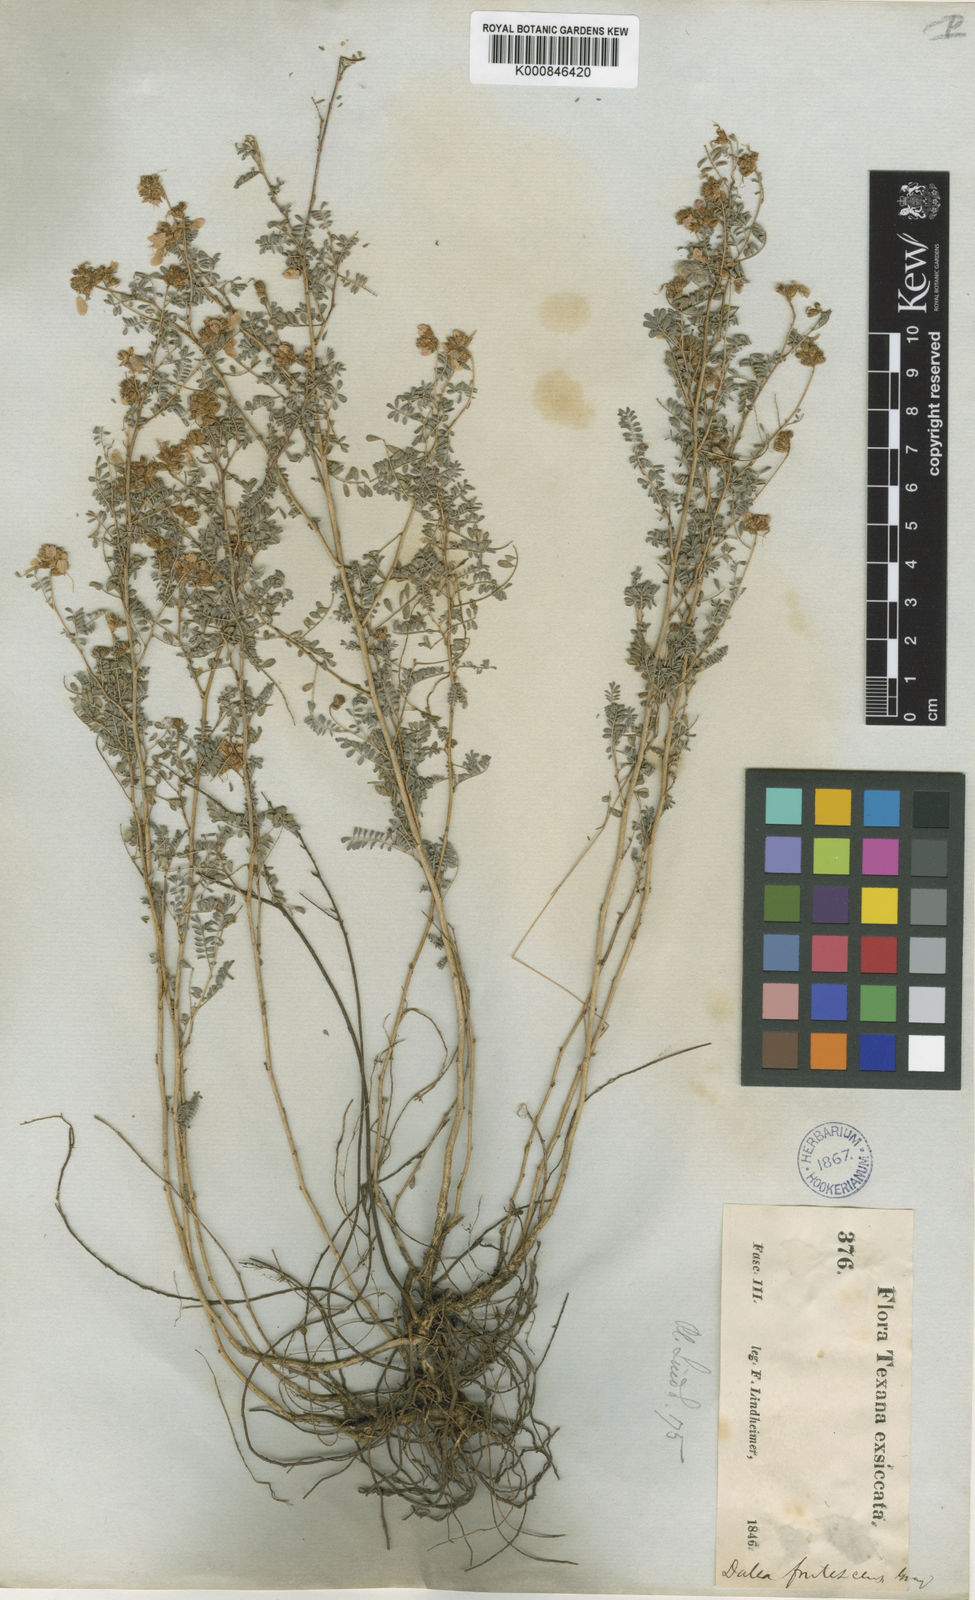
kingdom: Plantae
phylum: Tracheophyta
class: Magnoliopsida
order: Fabales
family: Fabaceae
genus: Dalea
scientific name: Dalea frutescens
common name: Black dalea
